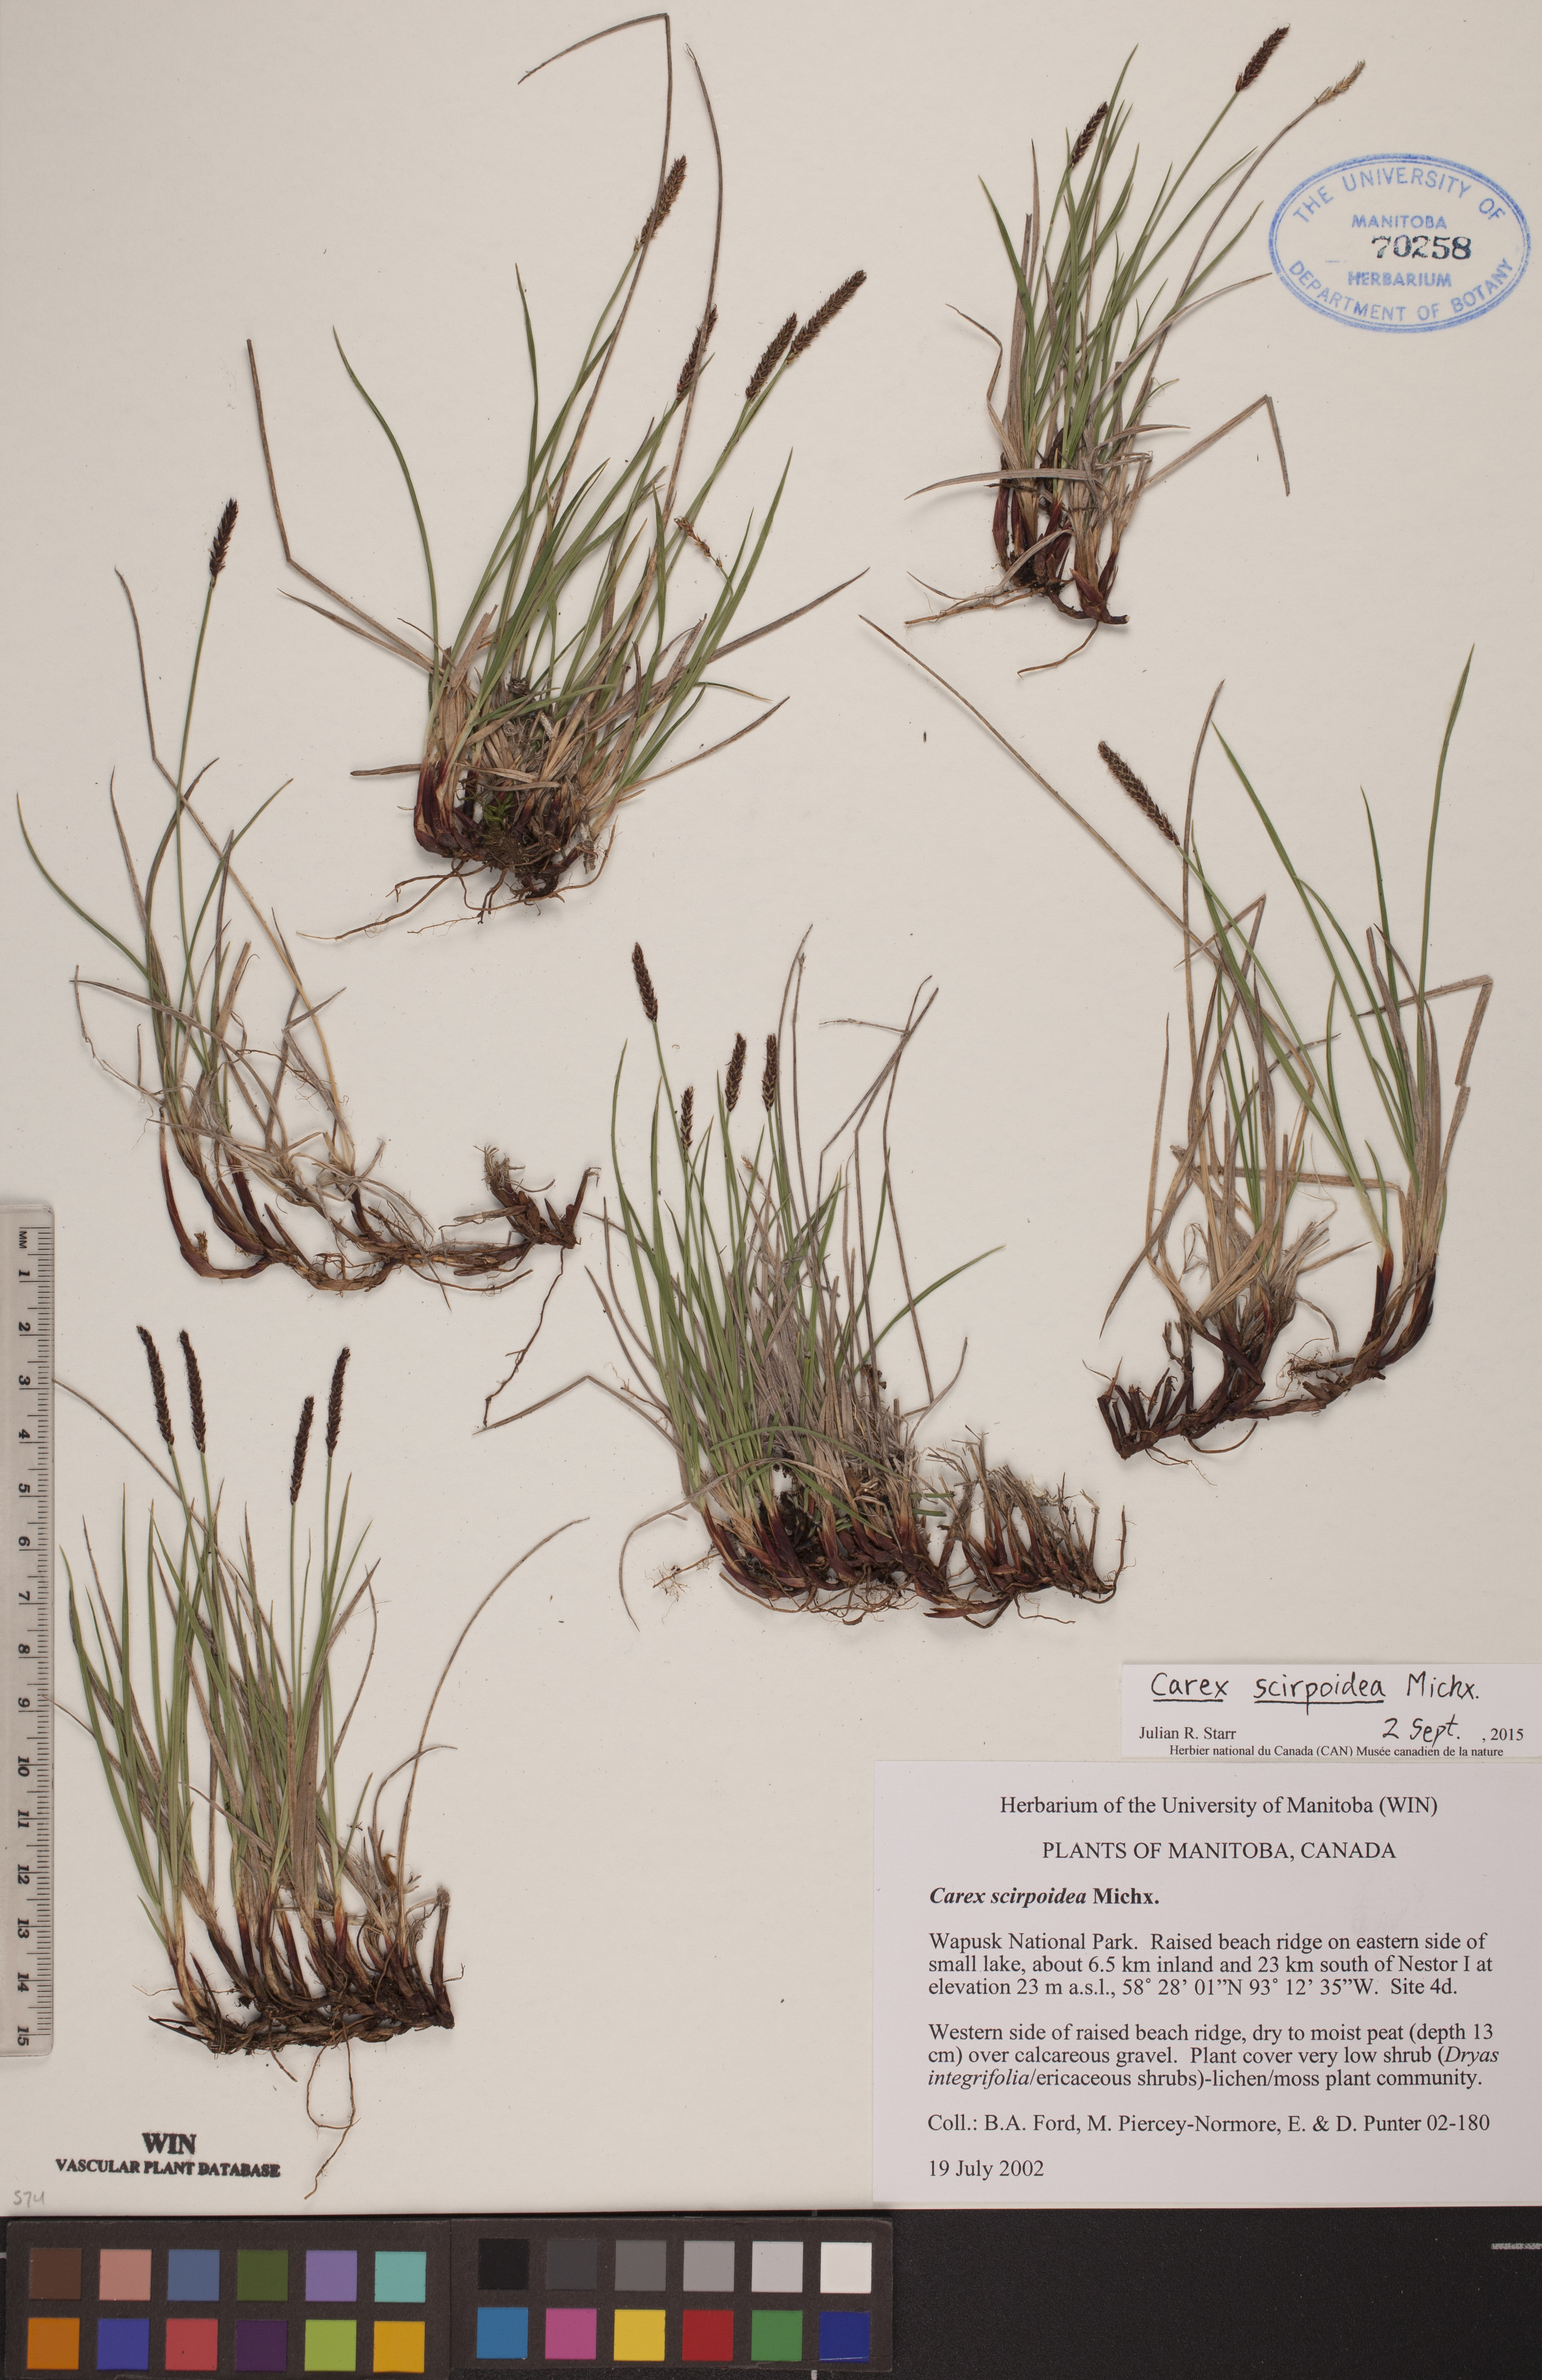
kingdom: Plantae
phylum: Tracheophyta
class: Liliopsida
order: Poales
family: Cyperaceae
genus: Carex
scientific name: Carex scirpoidea
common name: Canada single-spike sedge
